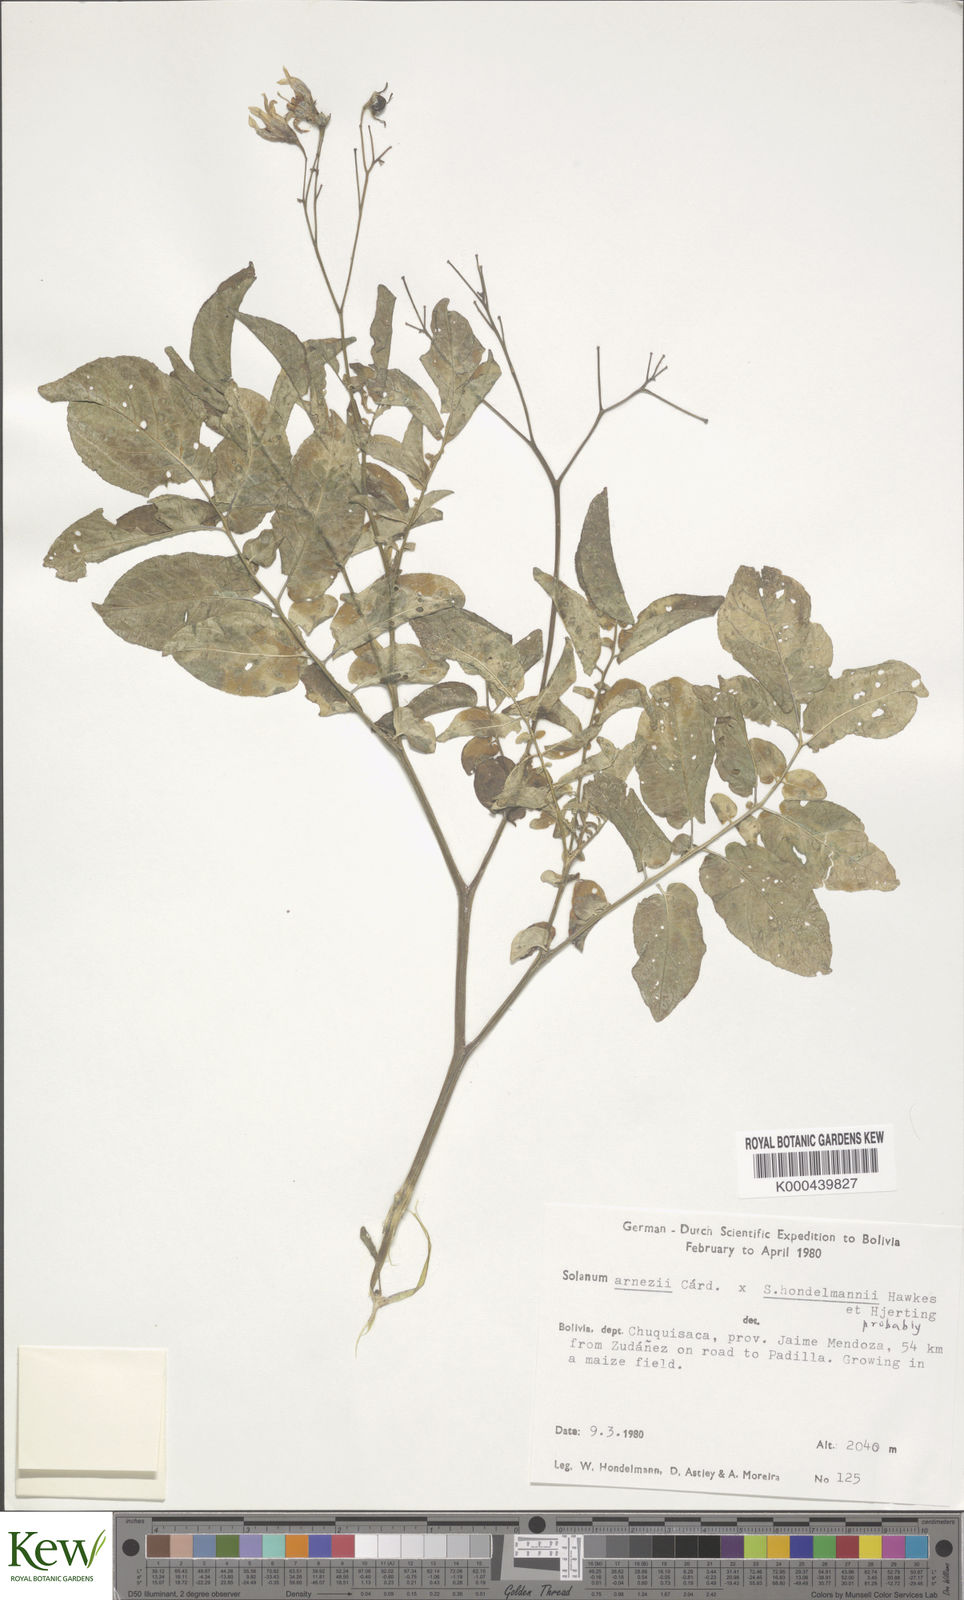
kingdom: Plantae
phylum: Tracheophyta
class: Magnoliopsida
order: Solanales
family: Solanaceae
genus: Solanum
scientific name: Solanum
